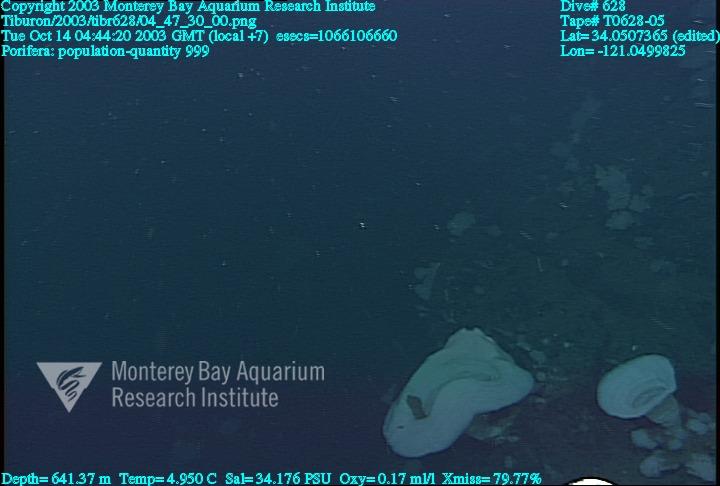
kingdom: Animalia
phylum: Porifera
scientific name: Porifera
